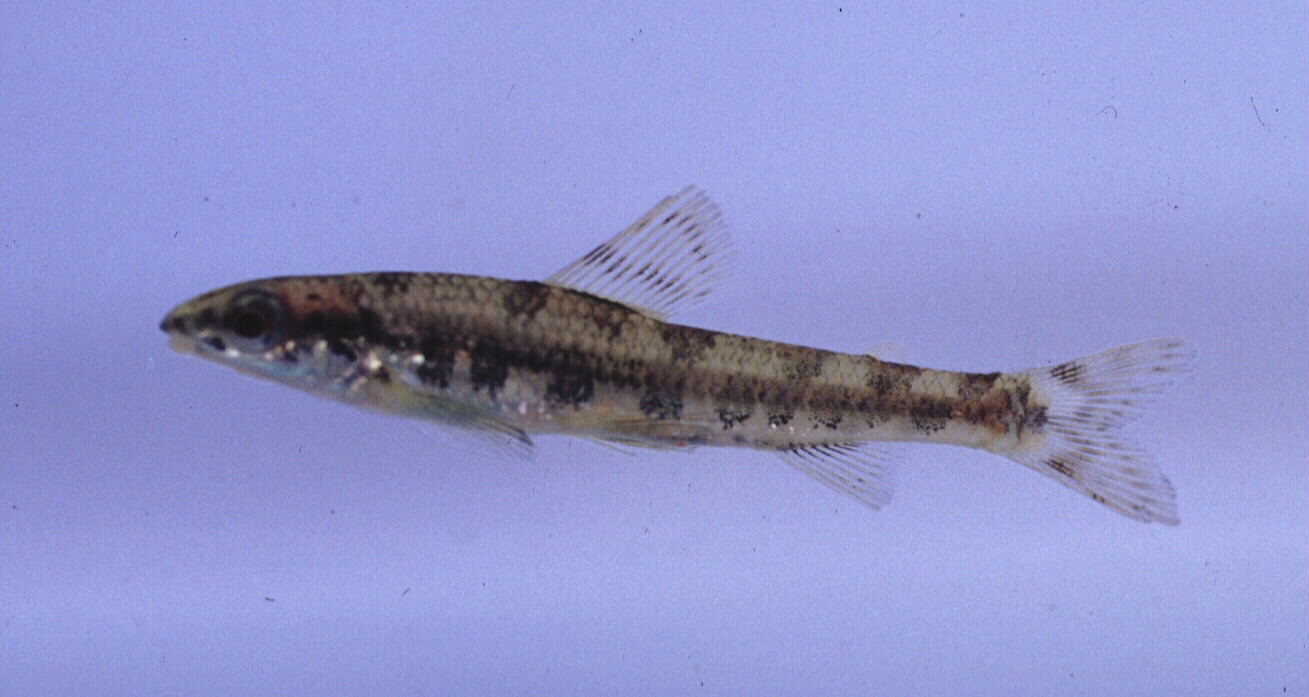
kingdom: Animalia
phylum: Chordata
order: Characiformes
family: Distichodontidae
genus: Nannocharax
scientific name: Nannocharax macropterus
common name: Broad-barred citharine
